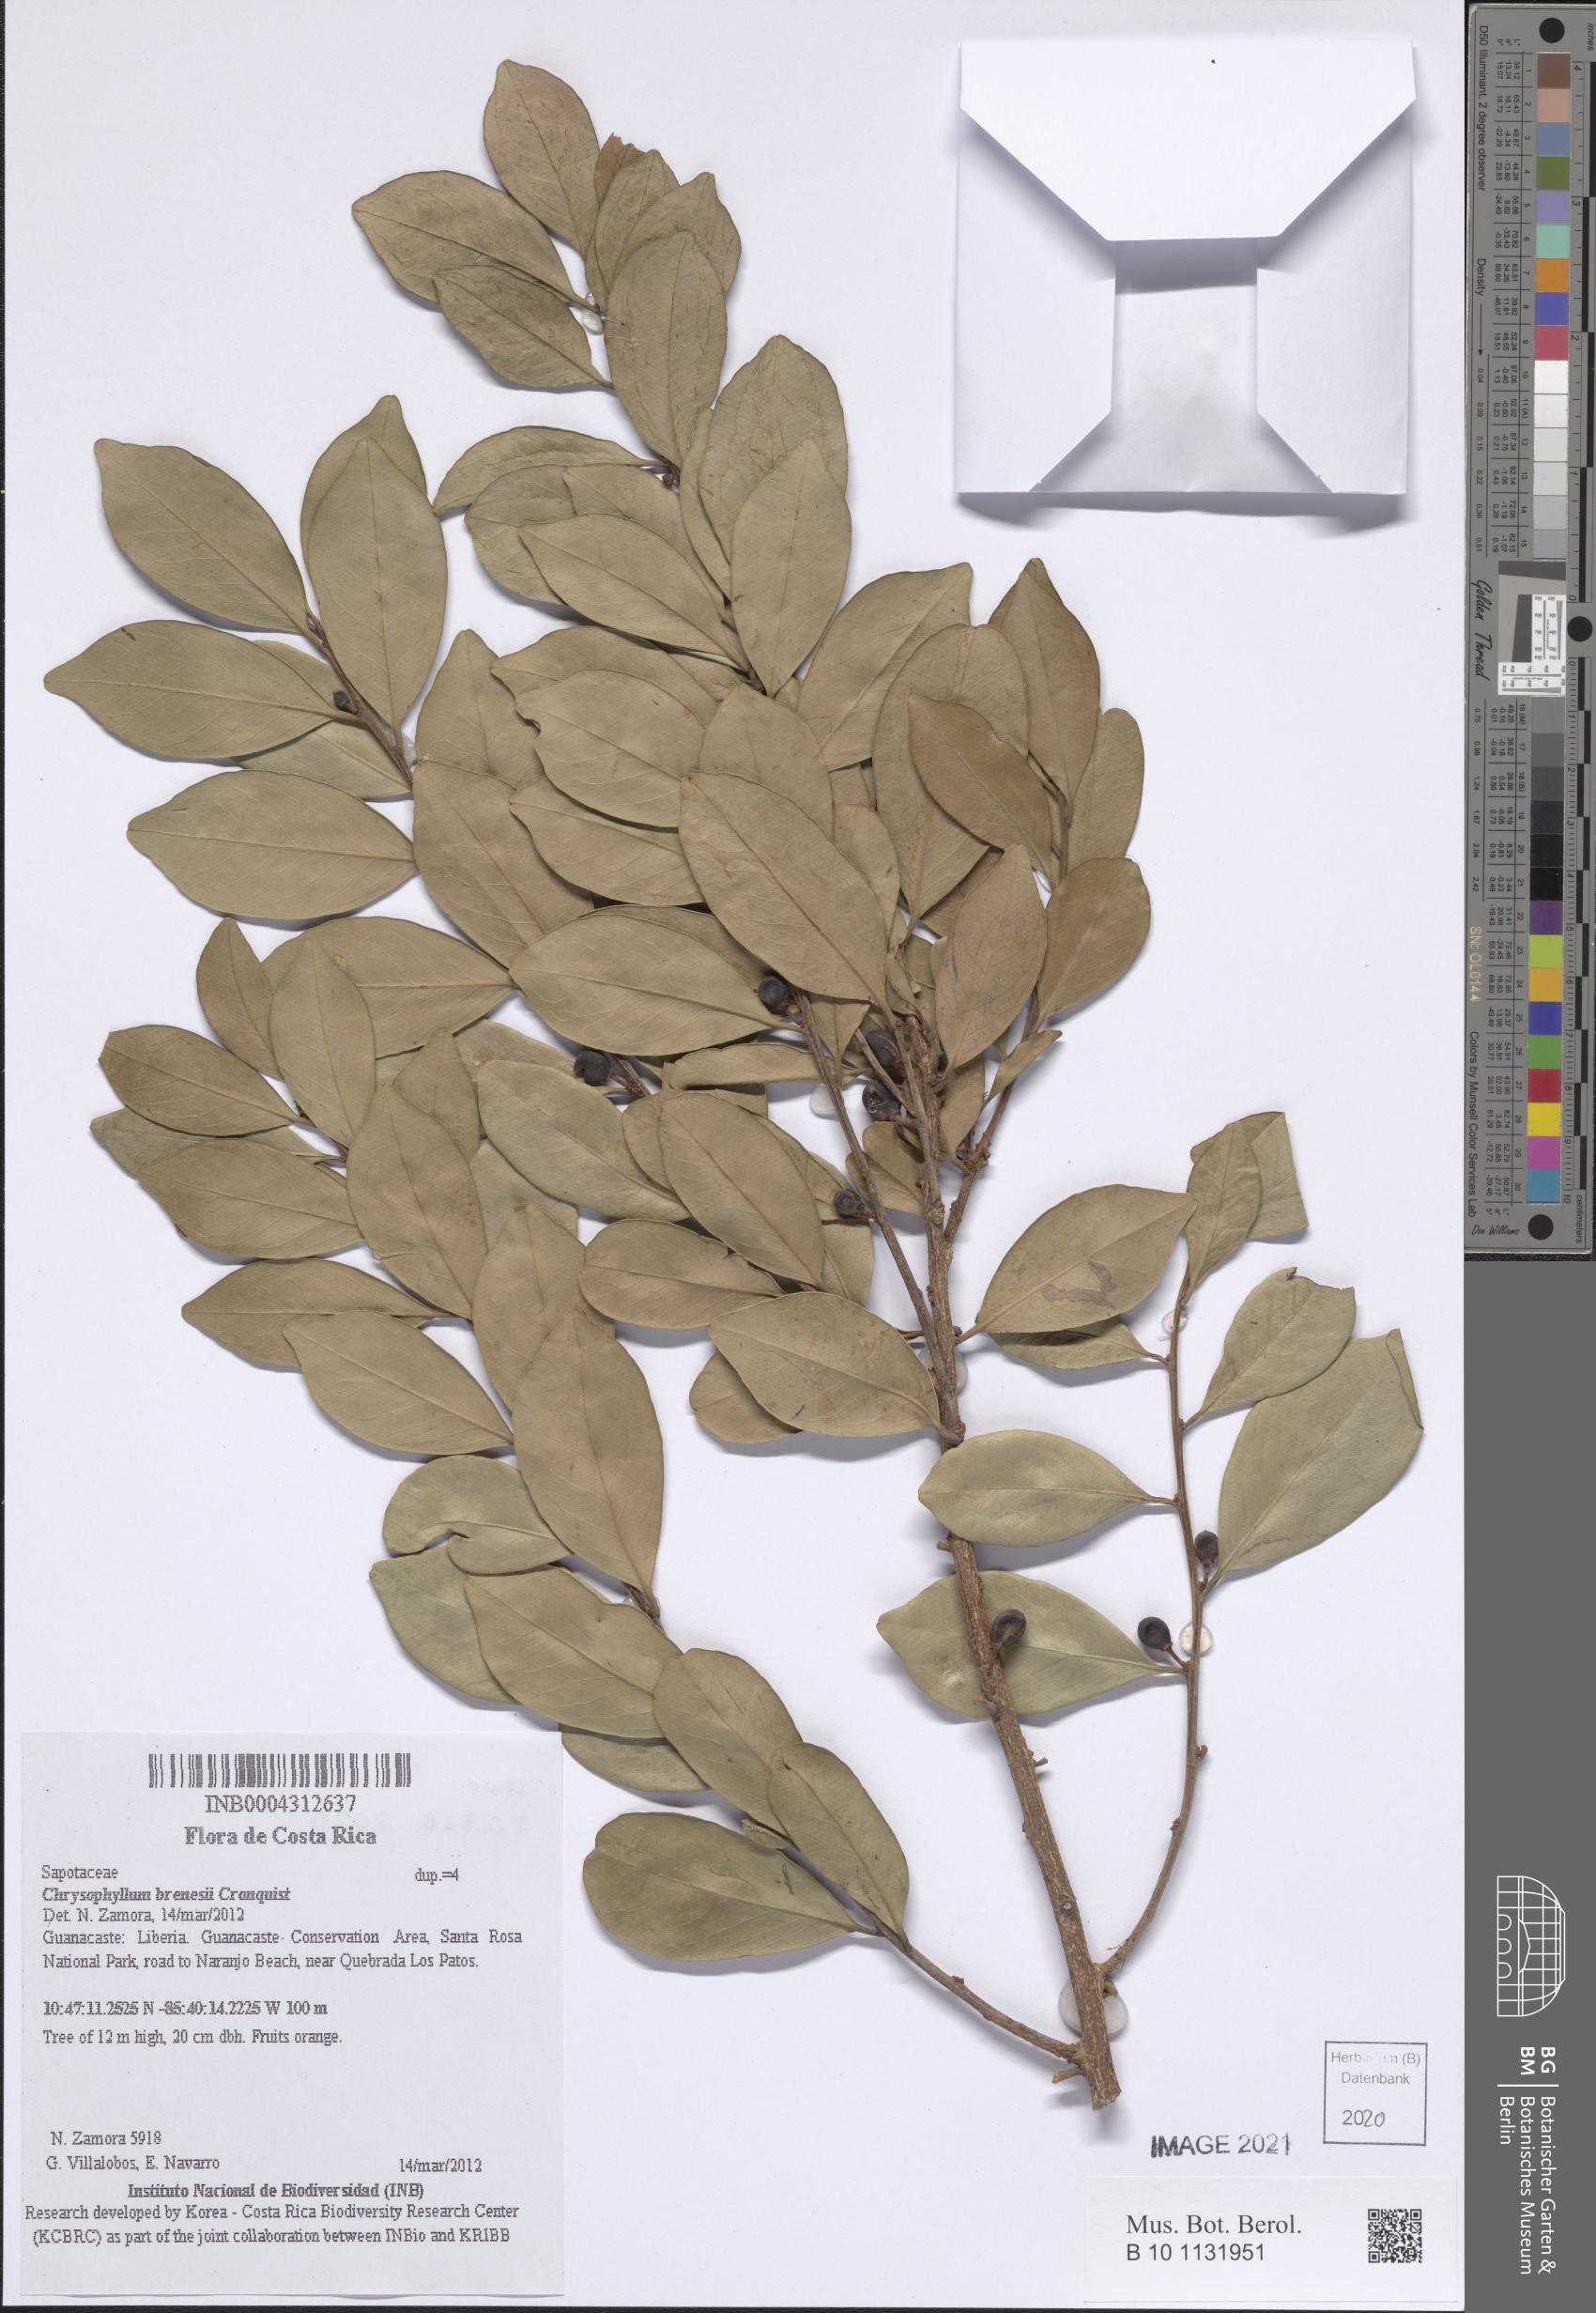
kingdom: Plantae
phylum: Tracheophyta
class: Magnoliopsida
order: Ericales
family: Sapotaceae
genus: Chrysophyllum
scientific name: Chrysophyllum brenesii
